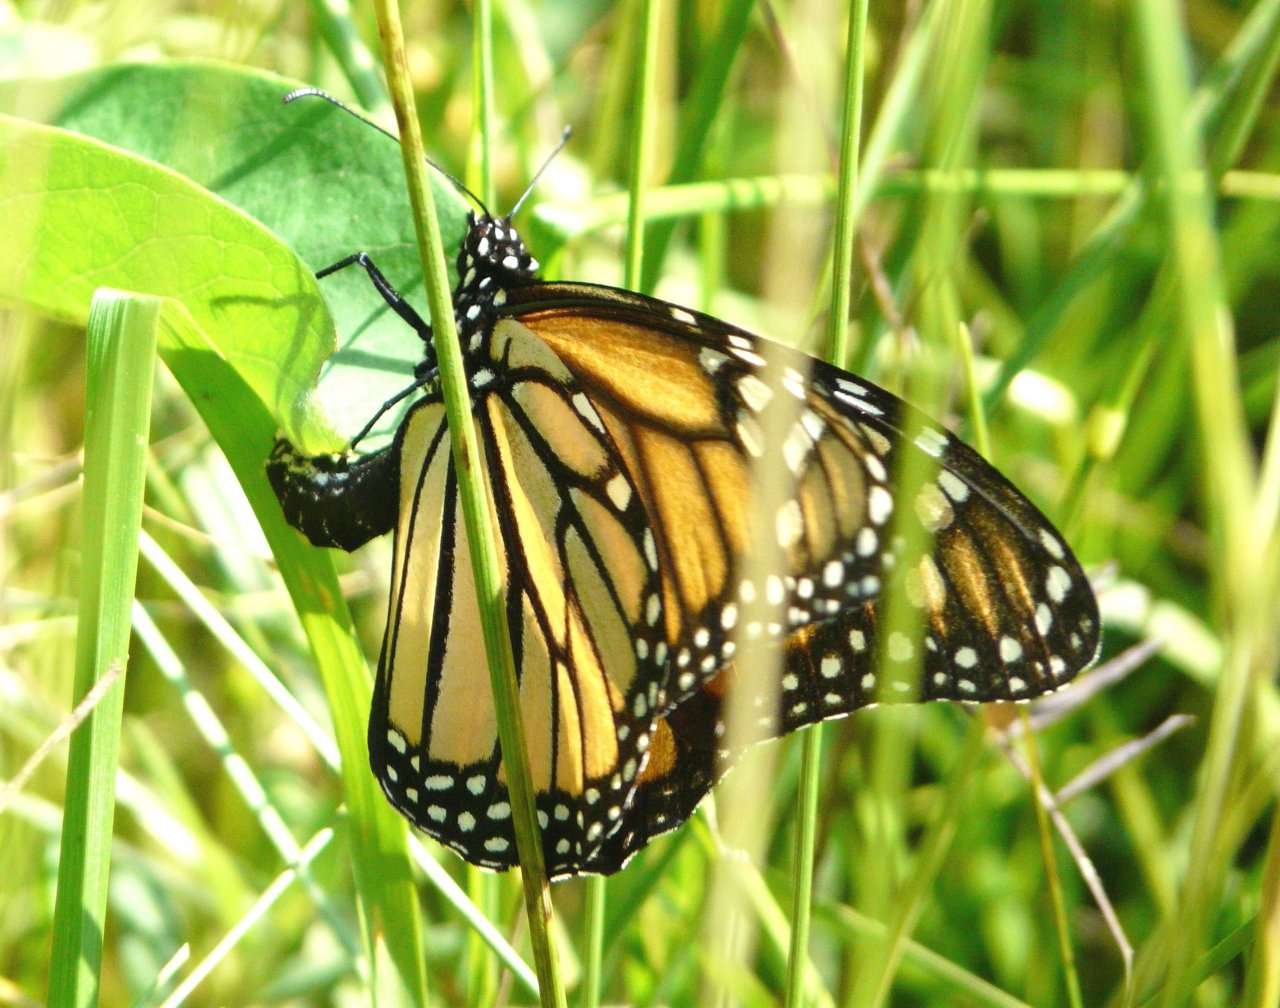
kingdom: Animalia
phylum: Arthropoda
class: Insecta
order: Lepidoptera
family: Nymphalidae
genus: Danaus
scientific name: Danaus plexippus
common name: Monarch
